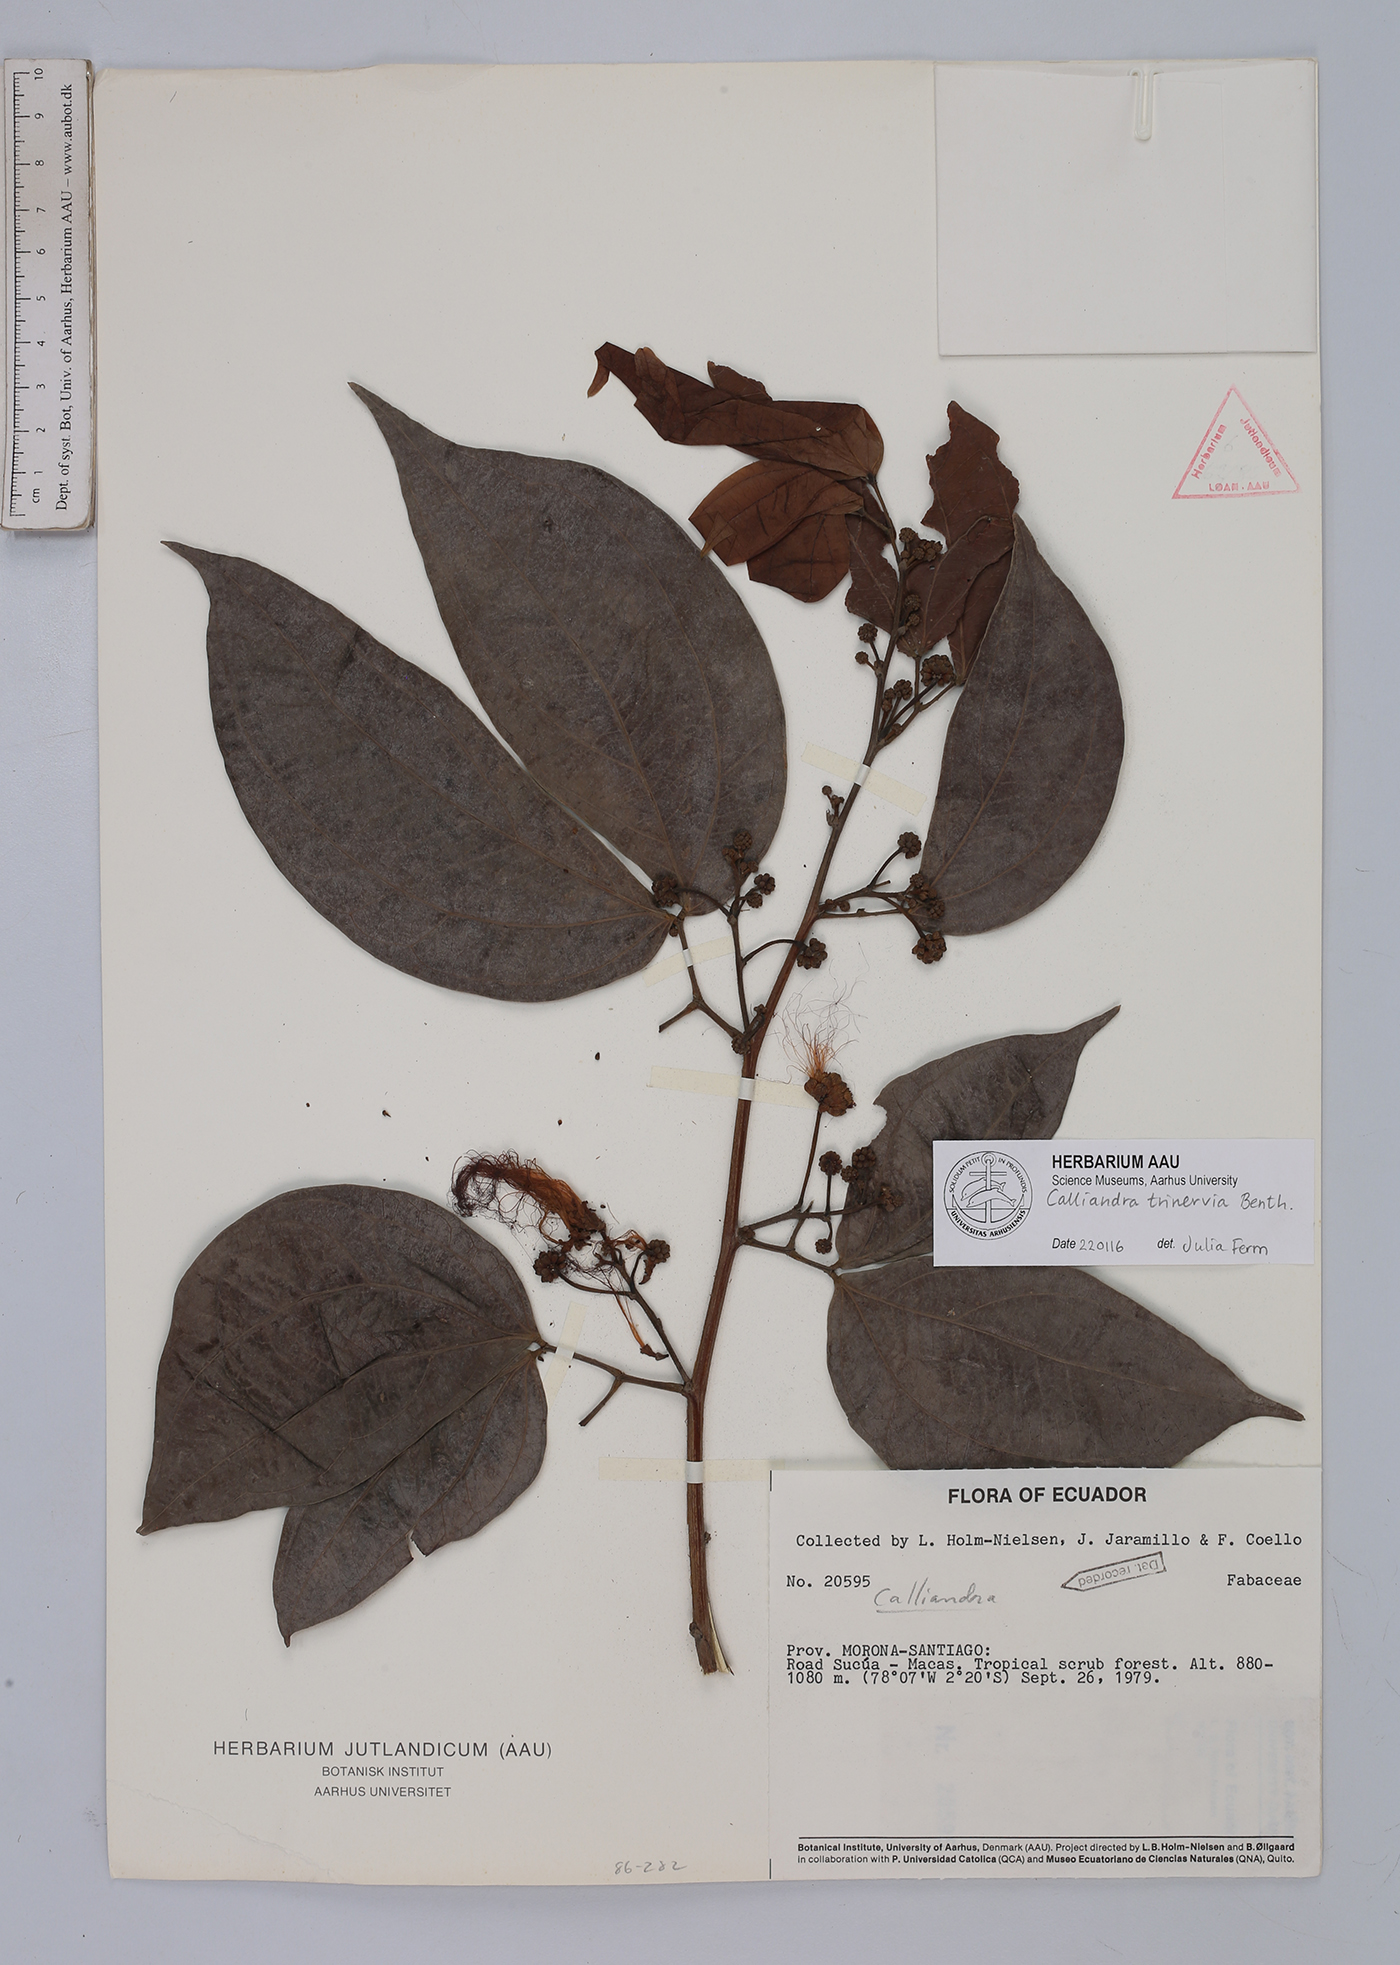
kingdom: Plantae
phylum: Tracheophyta
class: Magnoliopsida
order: Fabales
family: Fabaceae
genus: Calliandra
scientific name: Calliandra trinervia
